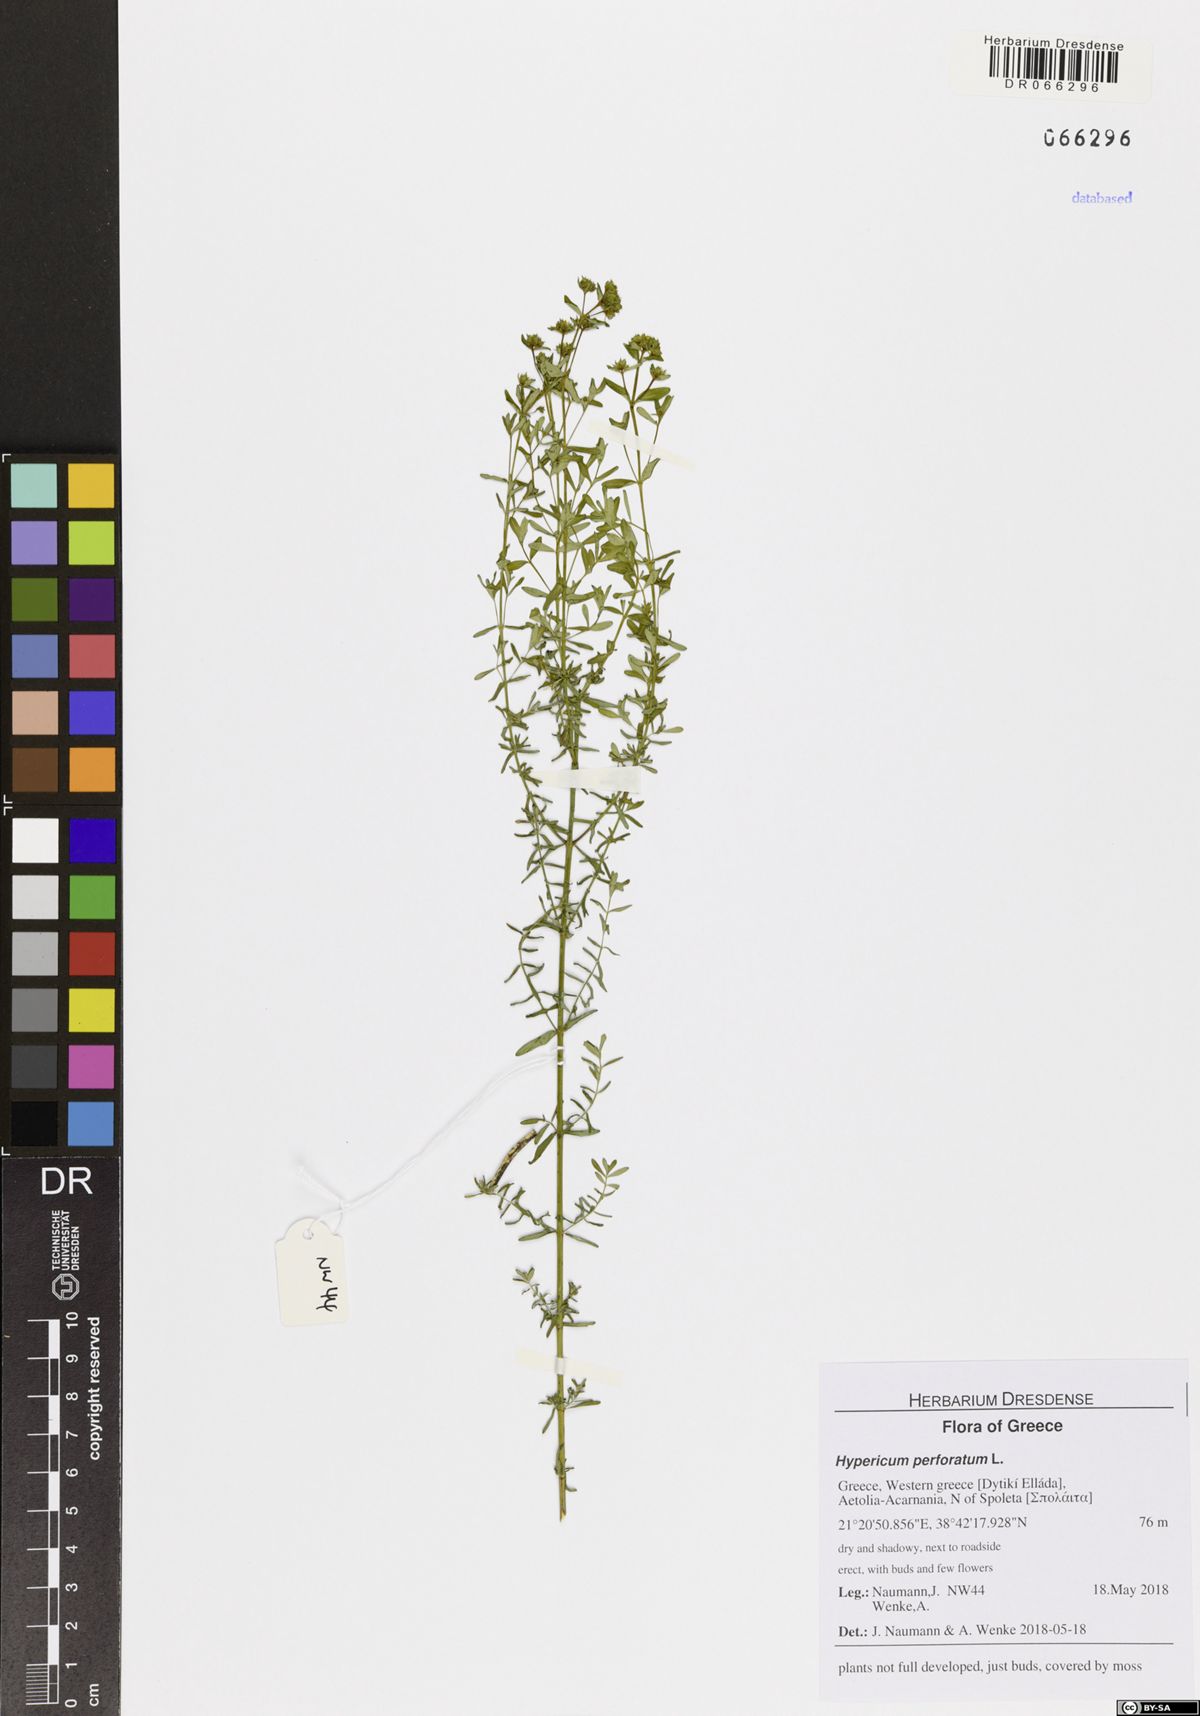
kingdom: Plantae
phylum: Tracheophyta
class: Magnoliopsida
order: Malpighiales
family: Hypericaceae
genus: Hypericum
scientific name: Hypericum perforatum
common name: Common st. johnswort
